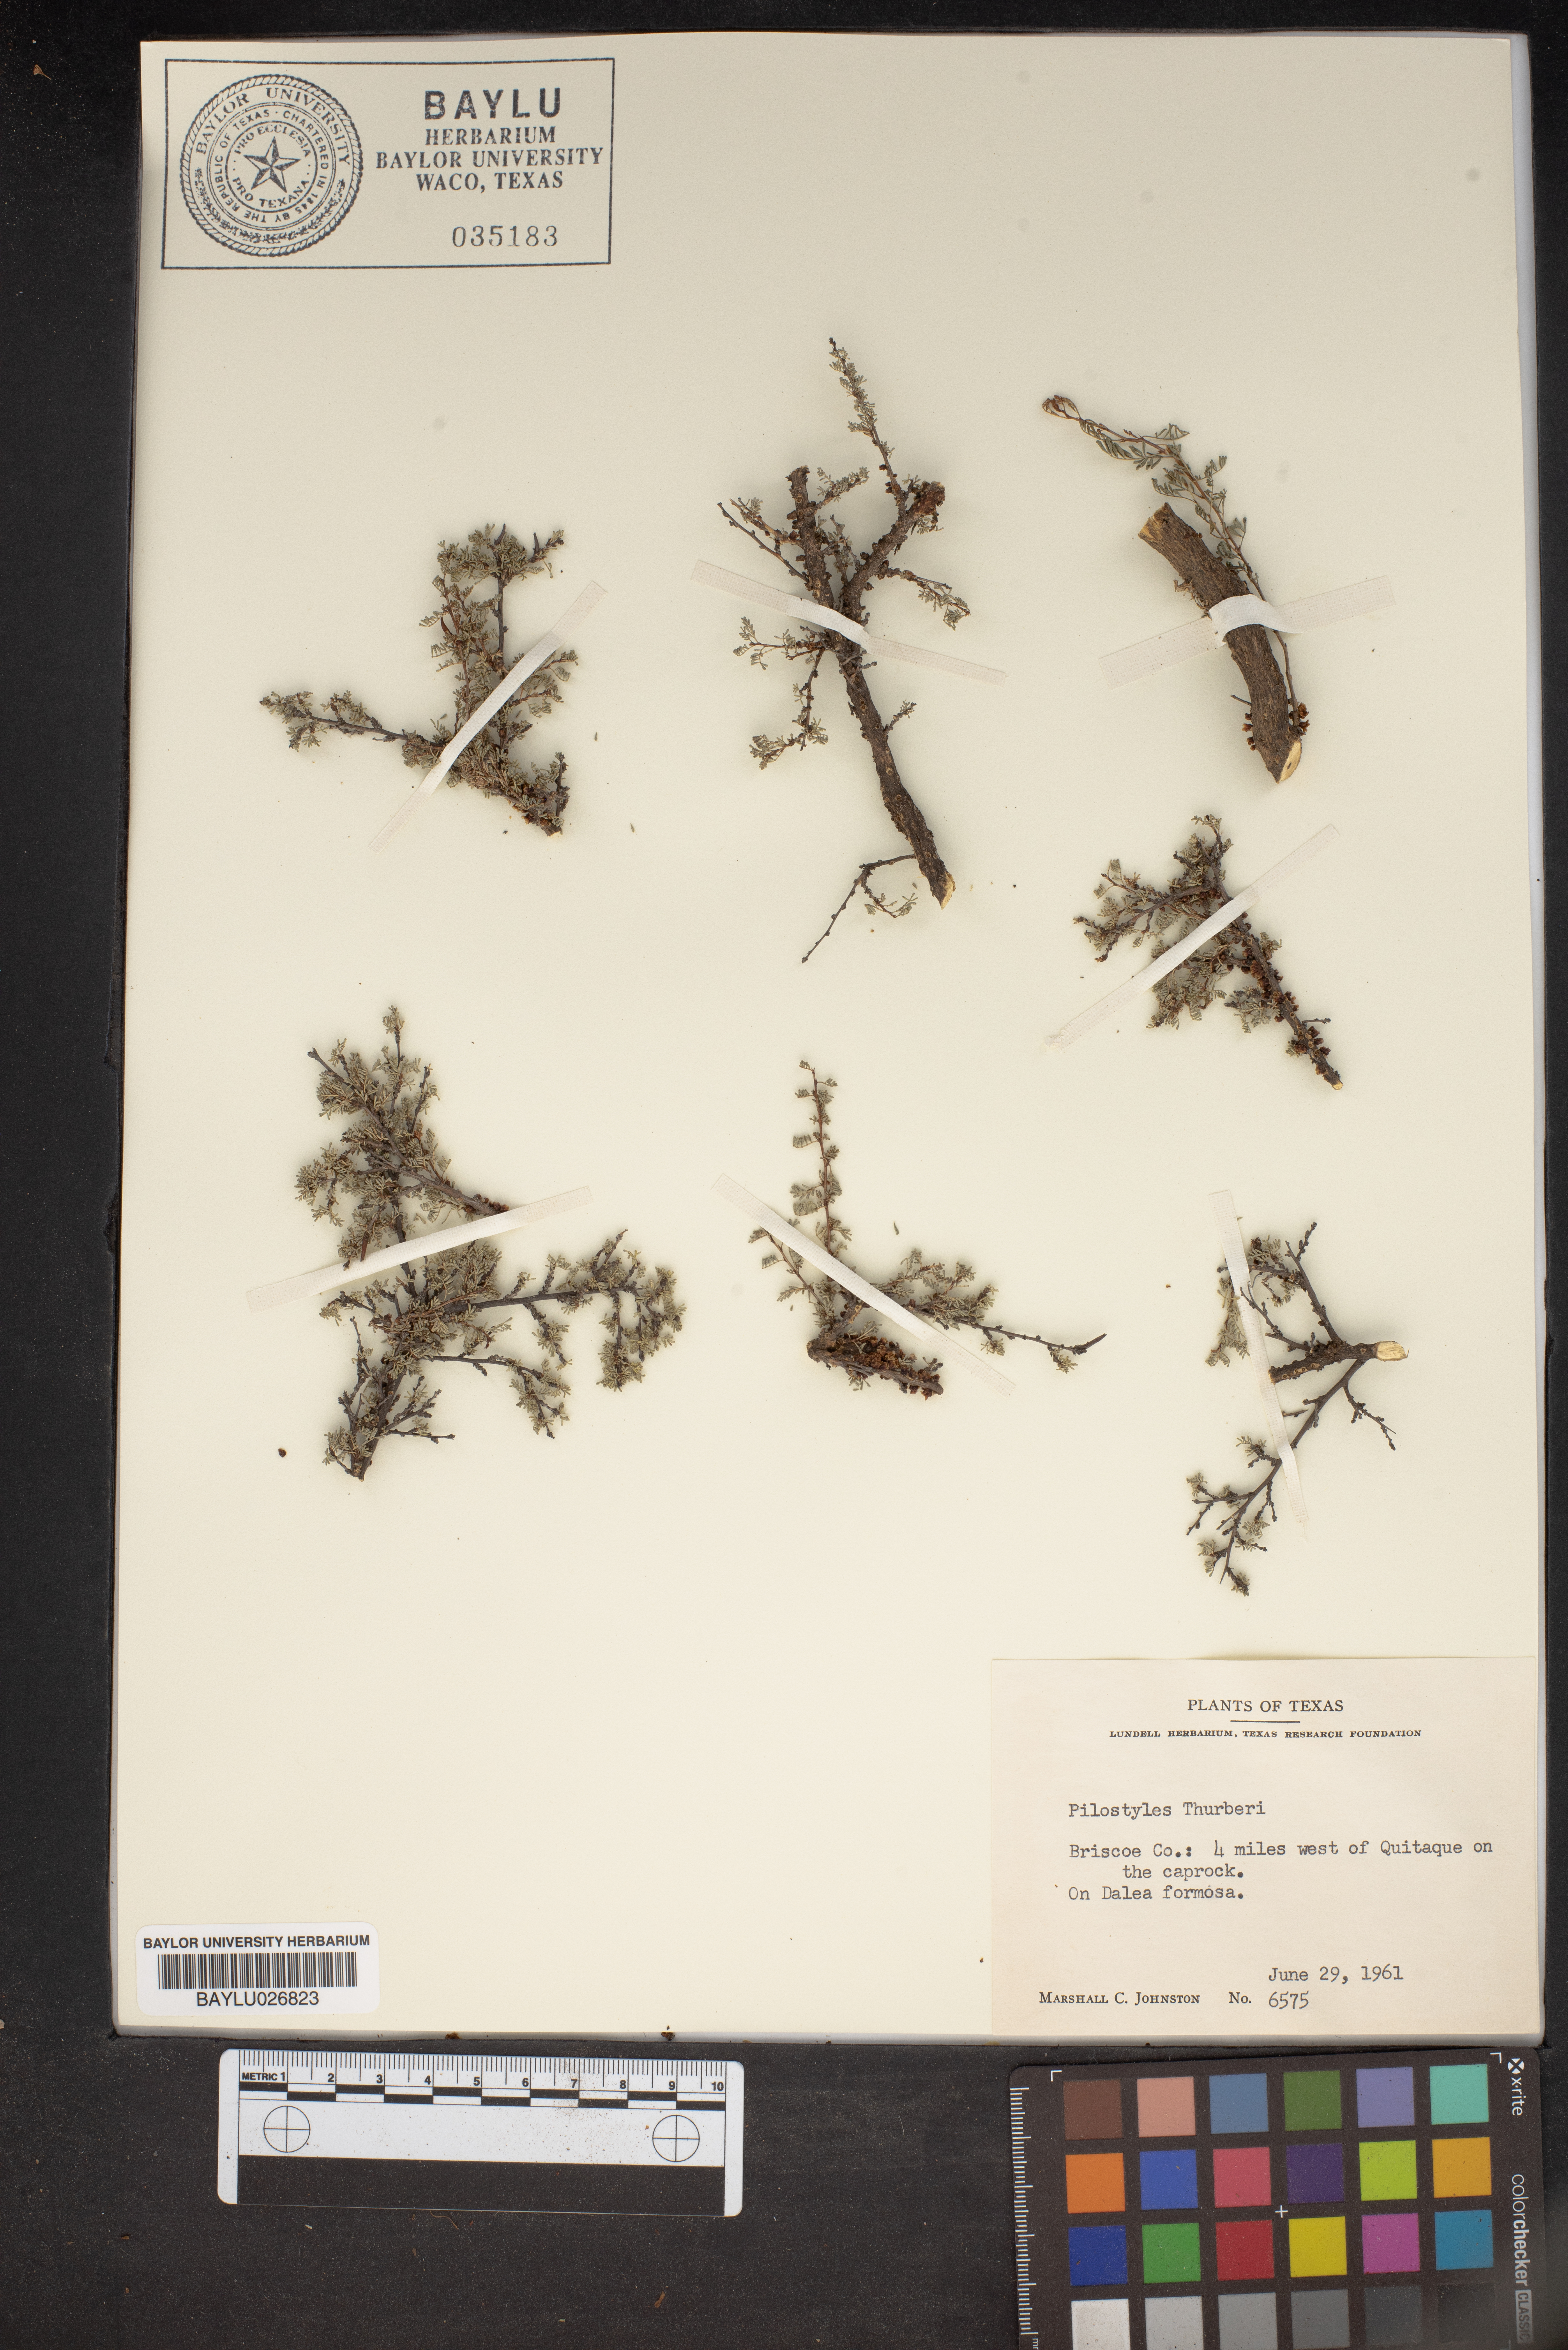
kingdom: Plantae
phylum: Tracheophyta
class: Magnoliopsida
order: Cucurbitales
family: Apodanthaceae
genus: Pilostyles
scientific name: Pilostyles thurberi
